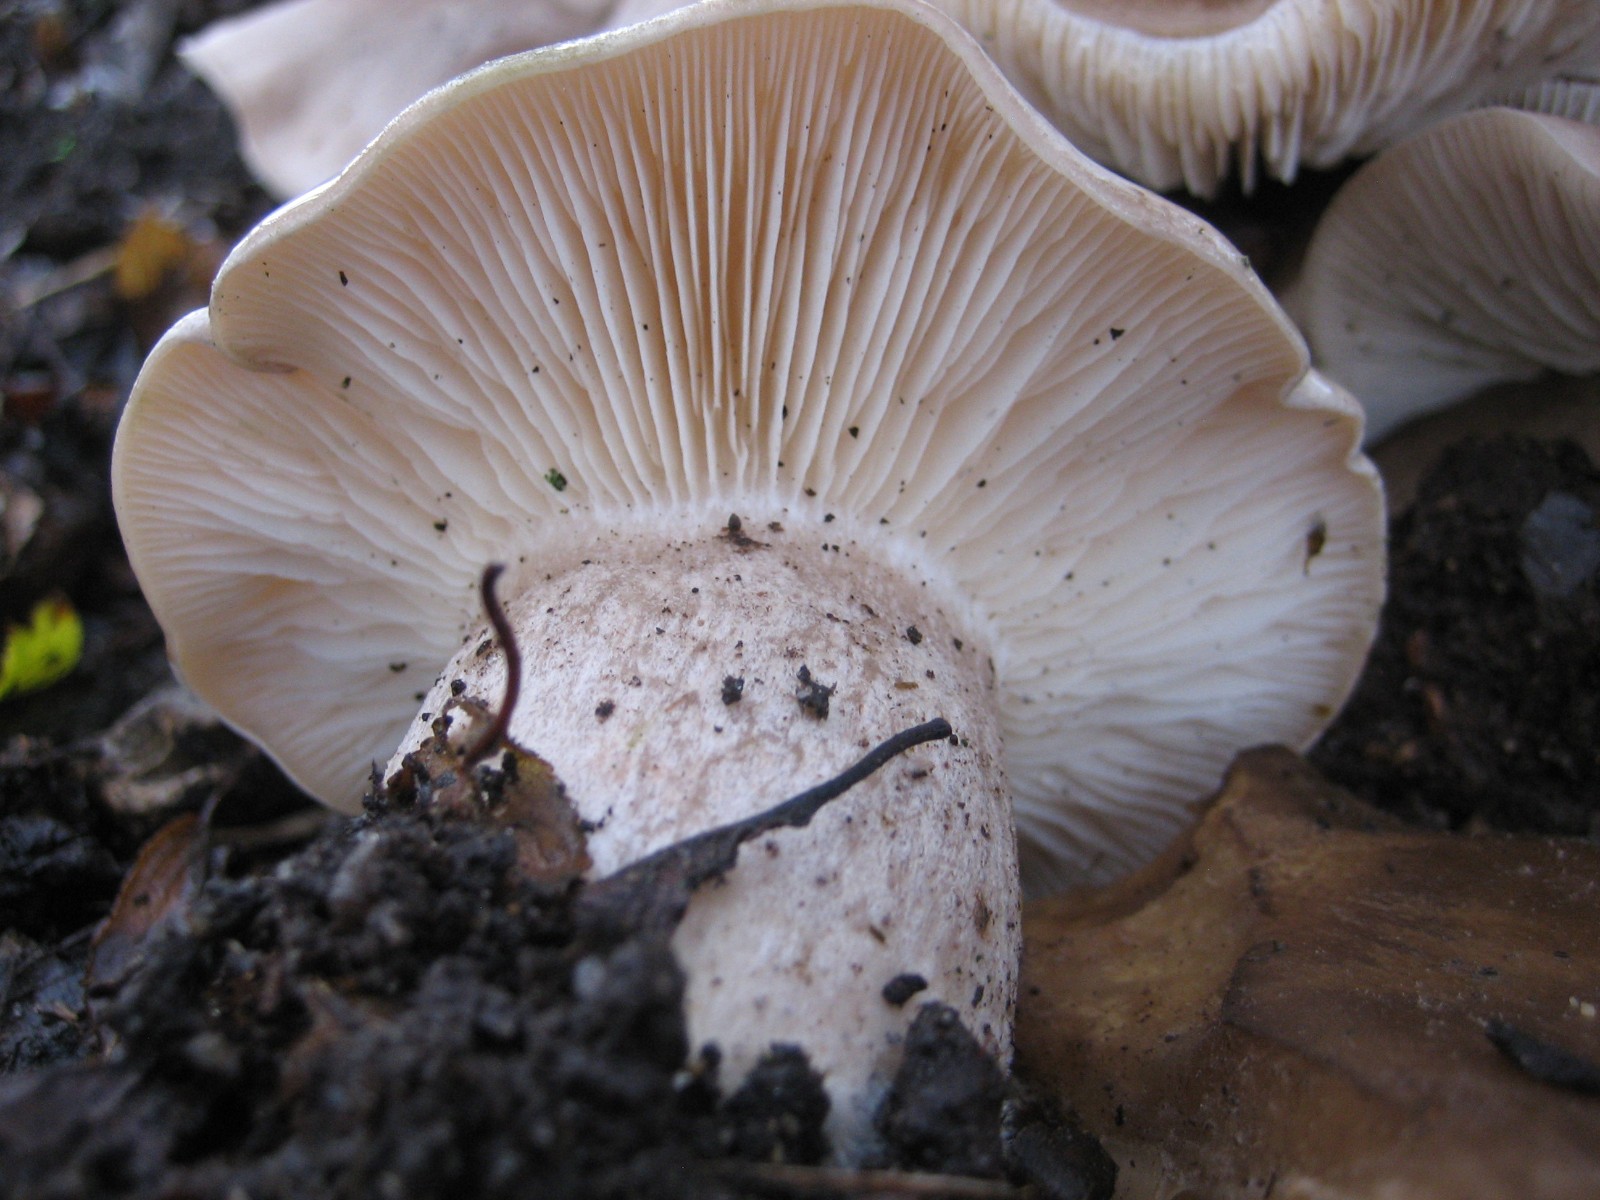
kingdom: Fungi
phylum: Basidiomycota
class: Agaricomycetes
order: Agaricales
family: Tricholomataceae
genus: Clitocybe
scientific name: Clitocybe nebularis
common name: tåge-tragthat
